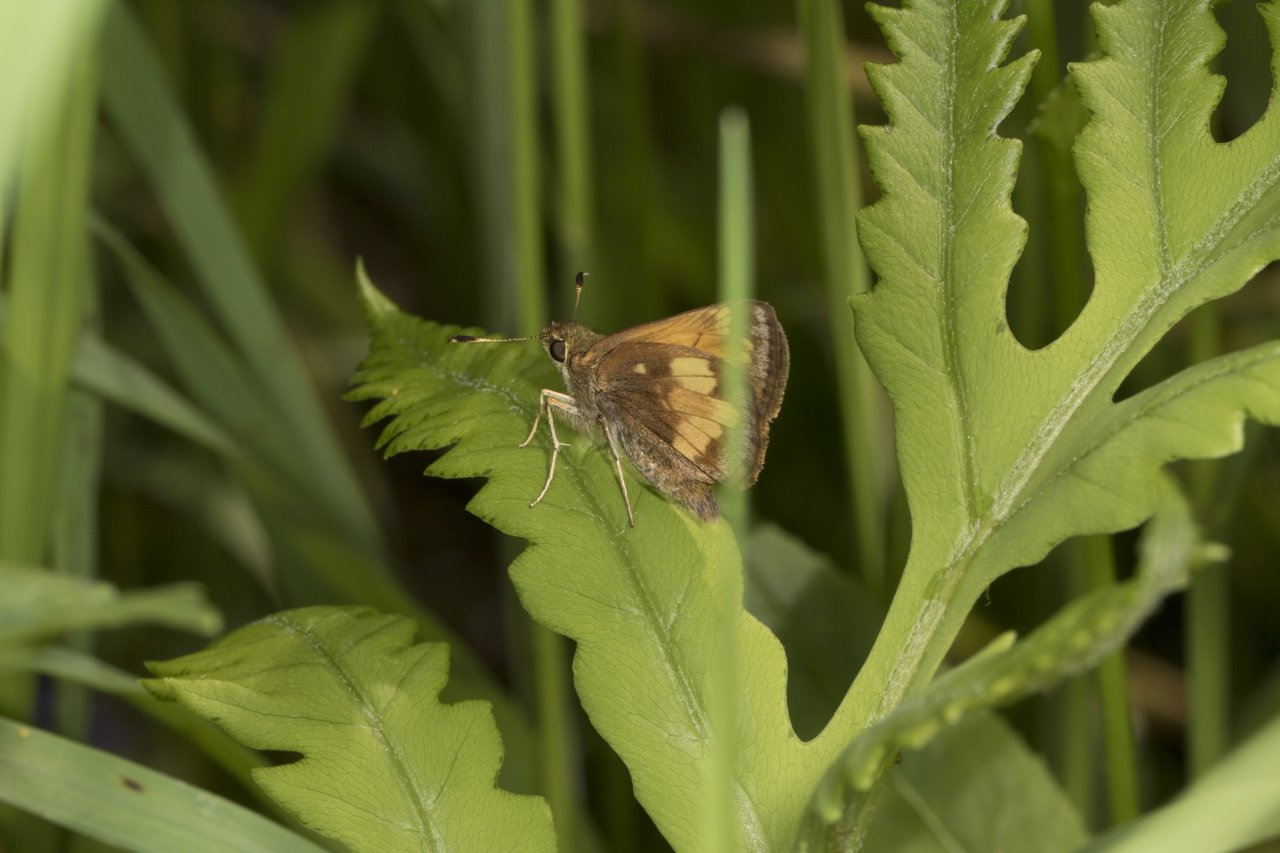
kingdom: Animalia
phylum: Arthropoda
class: Insecta
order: Lepidoptera
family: Hesperiidae
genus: Lon
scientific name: Lon hobomok
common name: Hobomok Skipper
